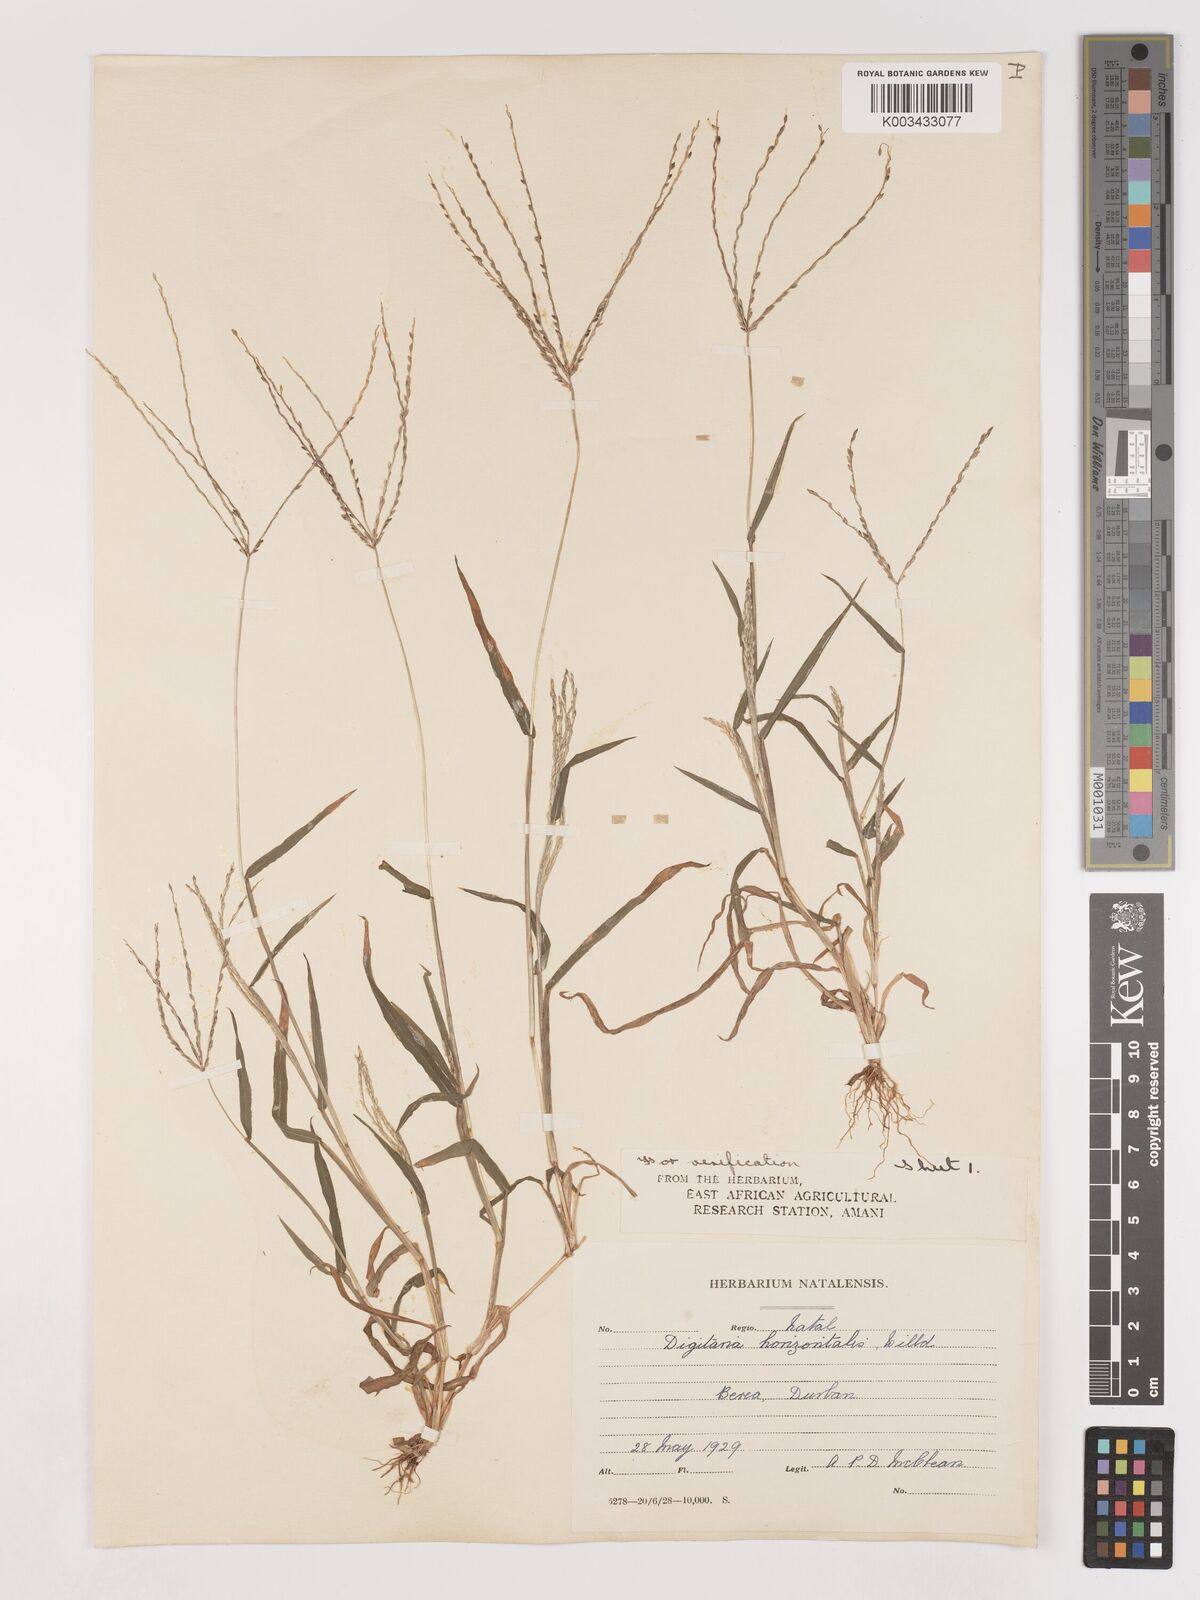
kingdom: Plantae
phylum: Tracheophyta
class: Liliopsida
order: Poales
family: Poaceae
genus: Digitaria
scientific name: Digitaria velutina
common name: Long-plume finger grass
